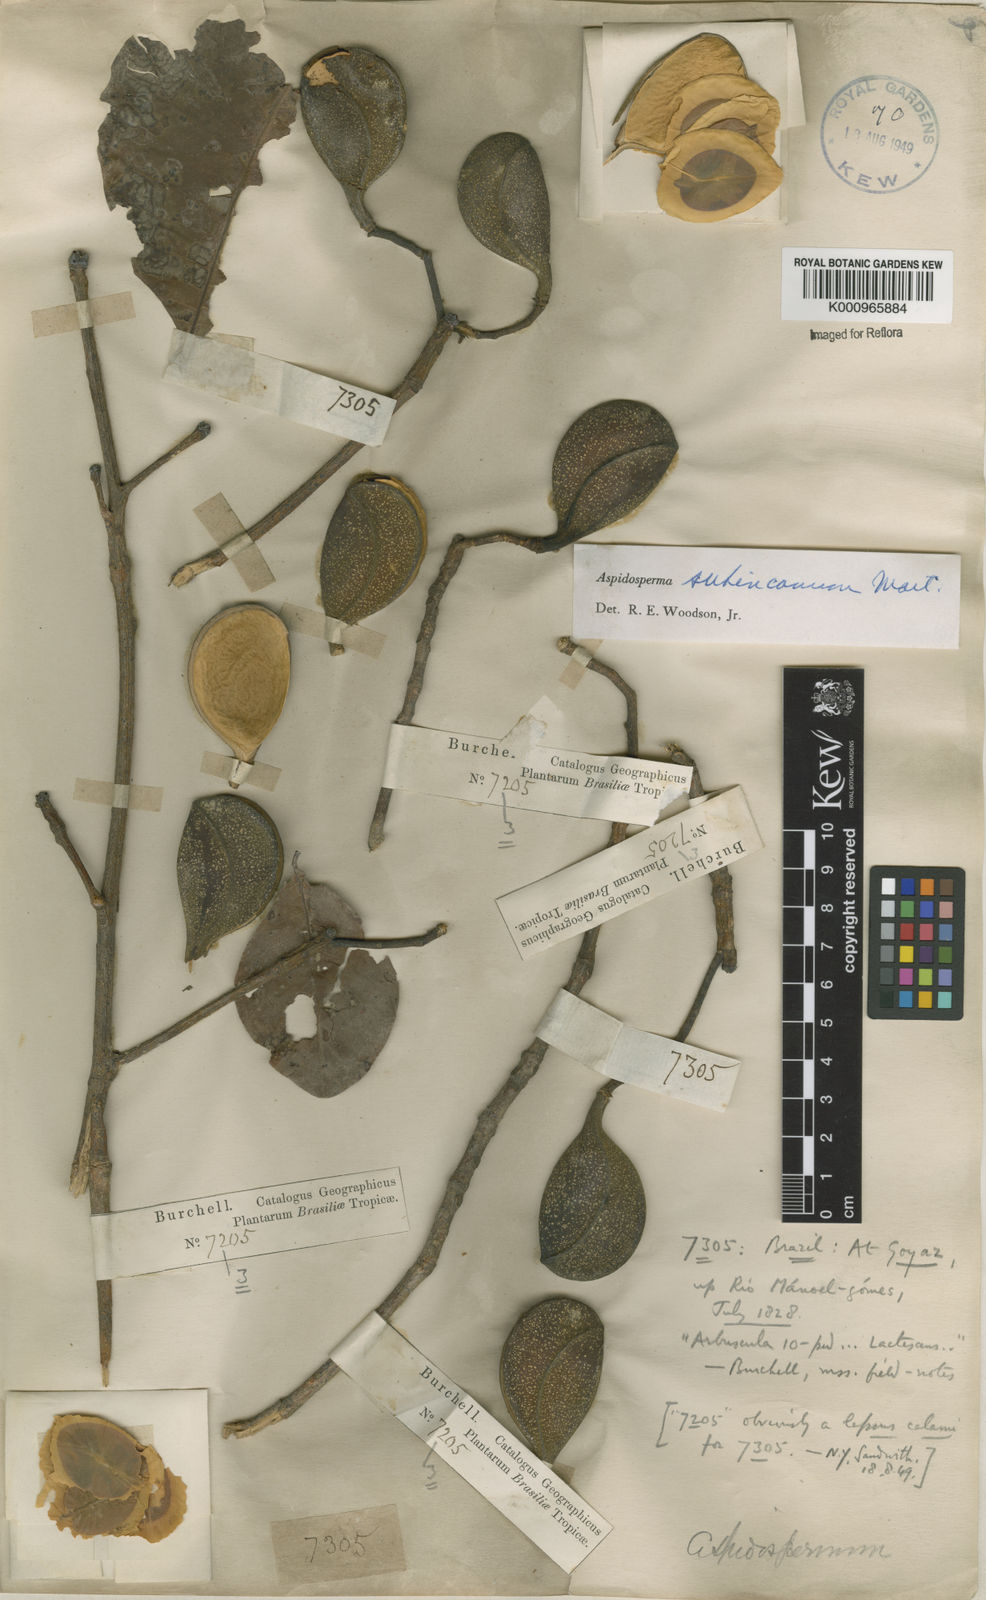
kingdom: Plantae
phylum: Tracheophyta
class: Magnoliopsida
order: Gentianales
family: Apocynaceae
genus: Aspidosperma
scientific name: Aspidosperma subincanum
